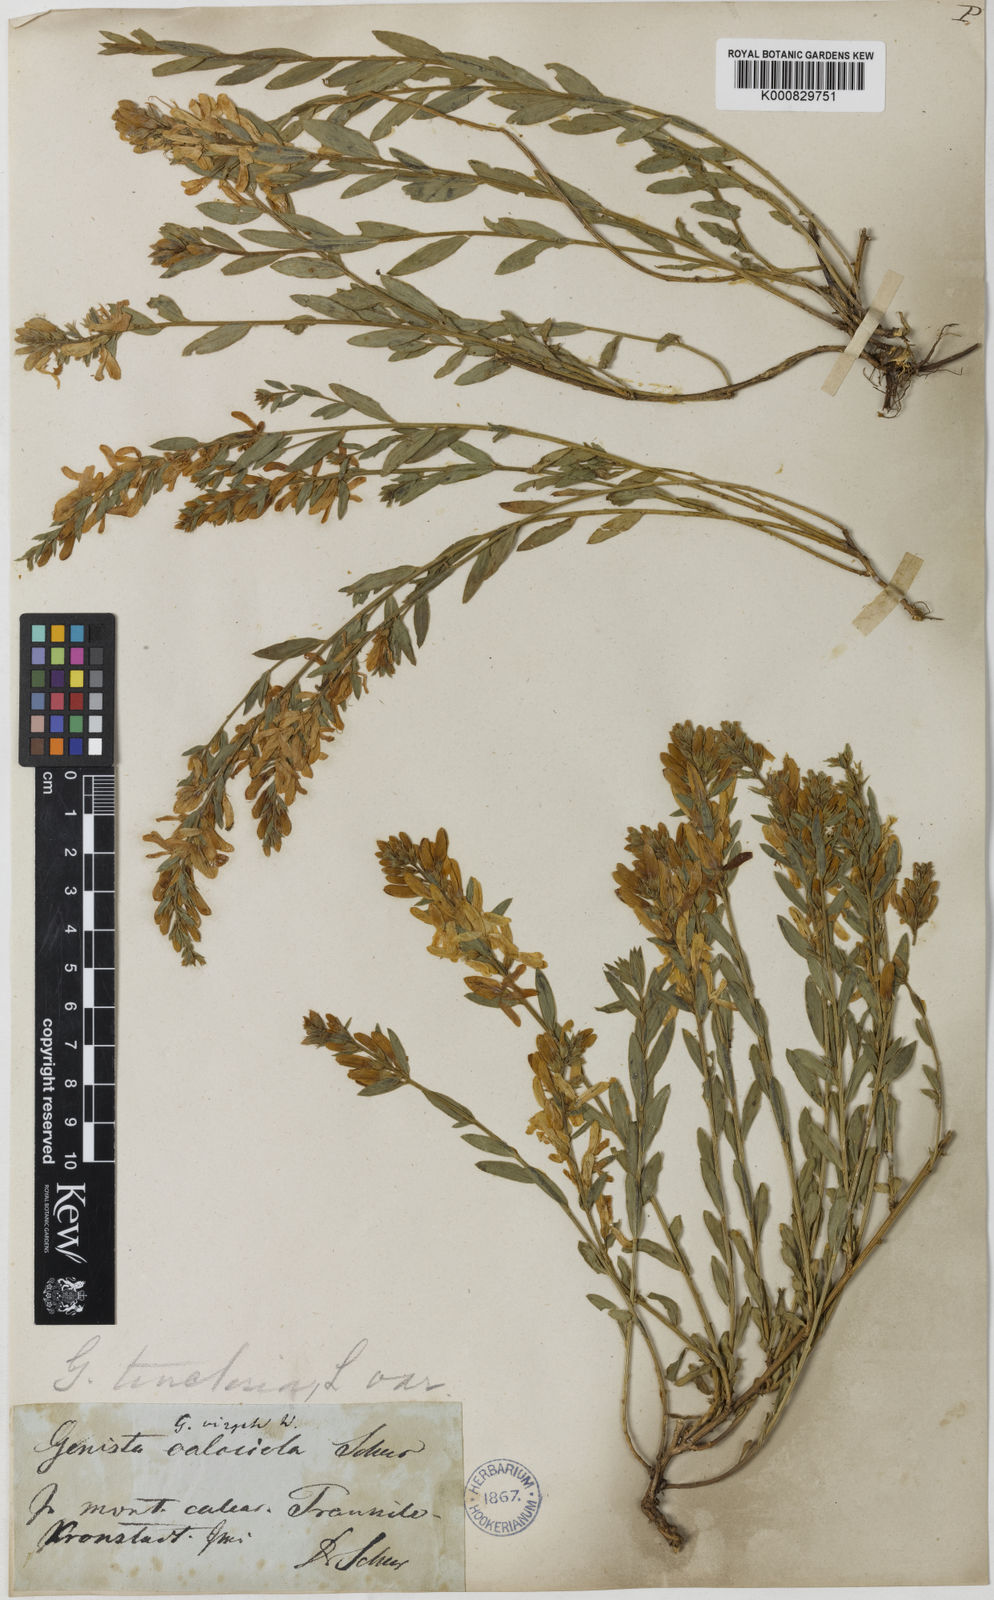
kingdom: Plantae
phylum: Tracheophyta
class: Magnoliopsida
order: Fabales
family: Fabaceae
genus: Genista
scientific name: Genista tinctoria
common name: Dyer's greenweed
